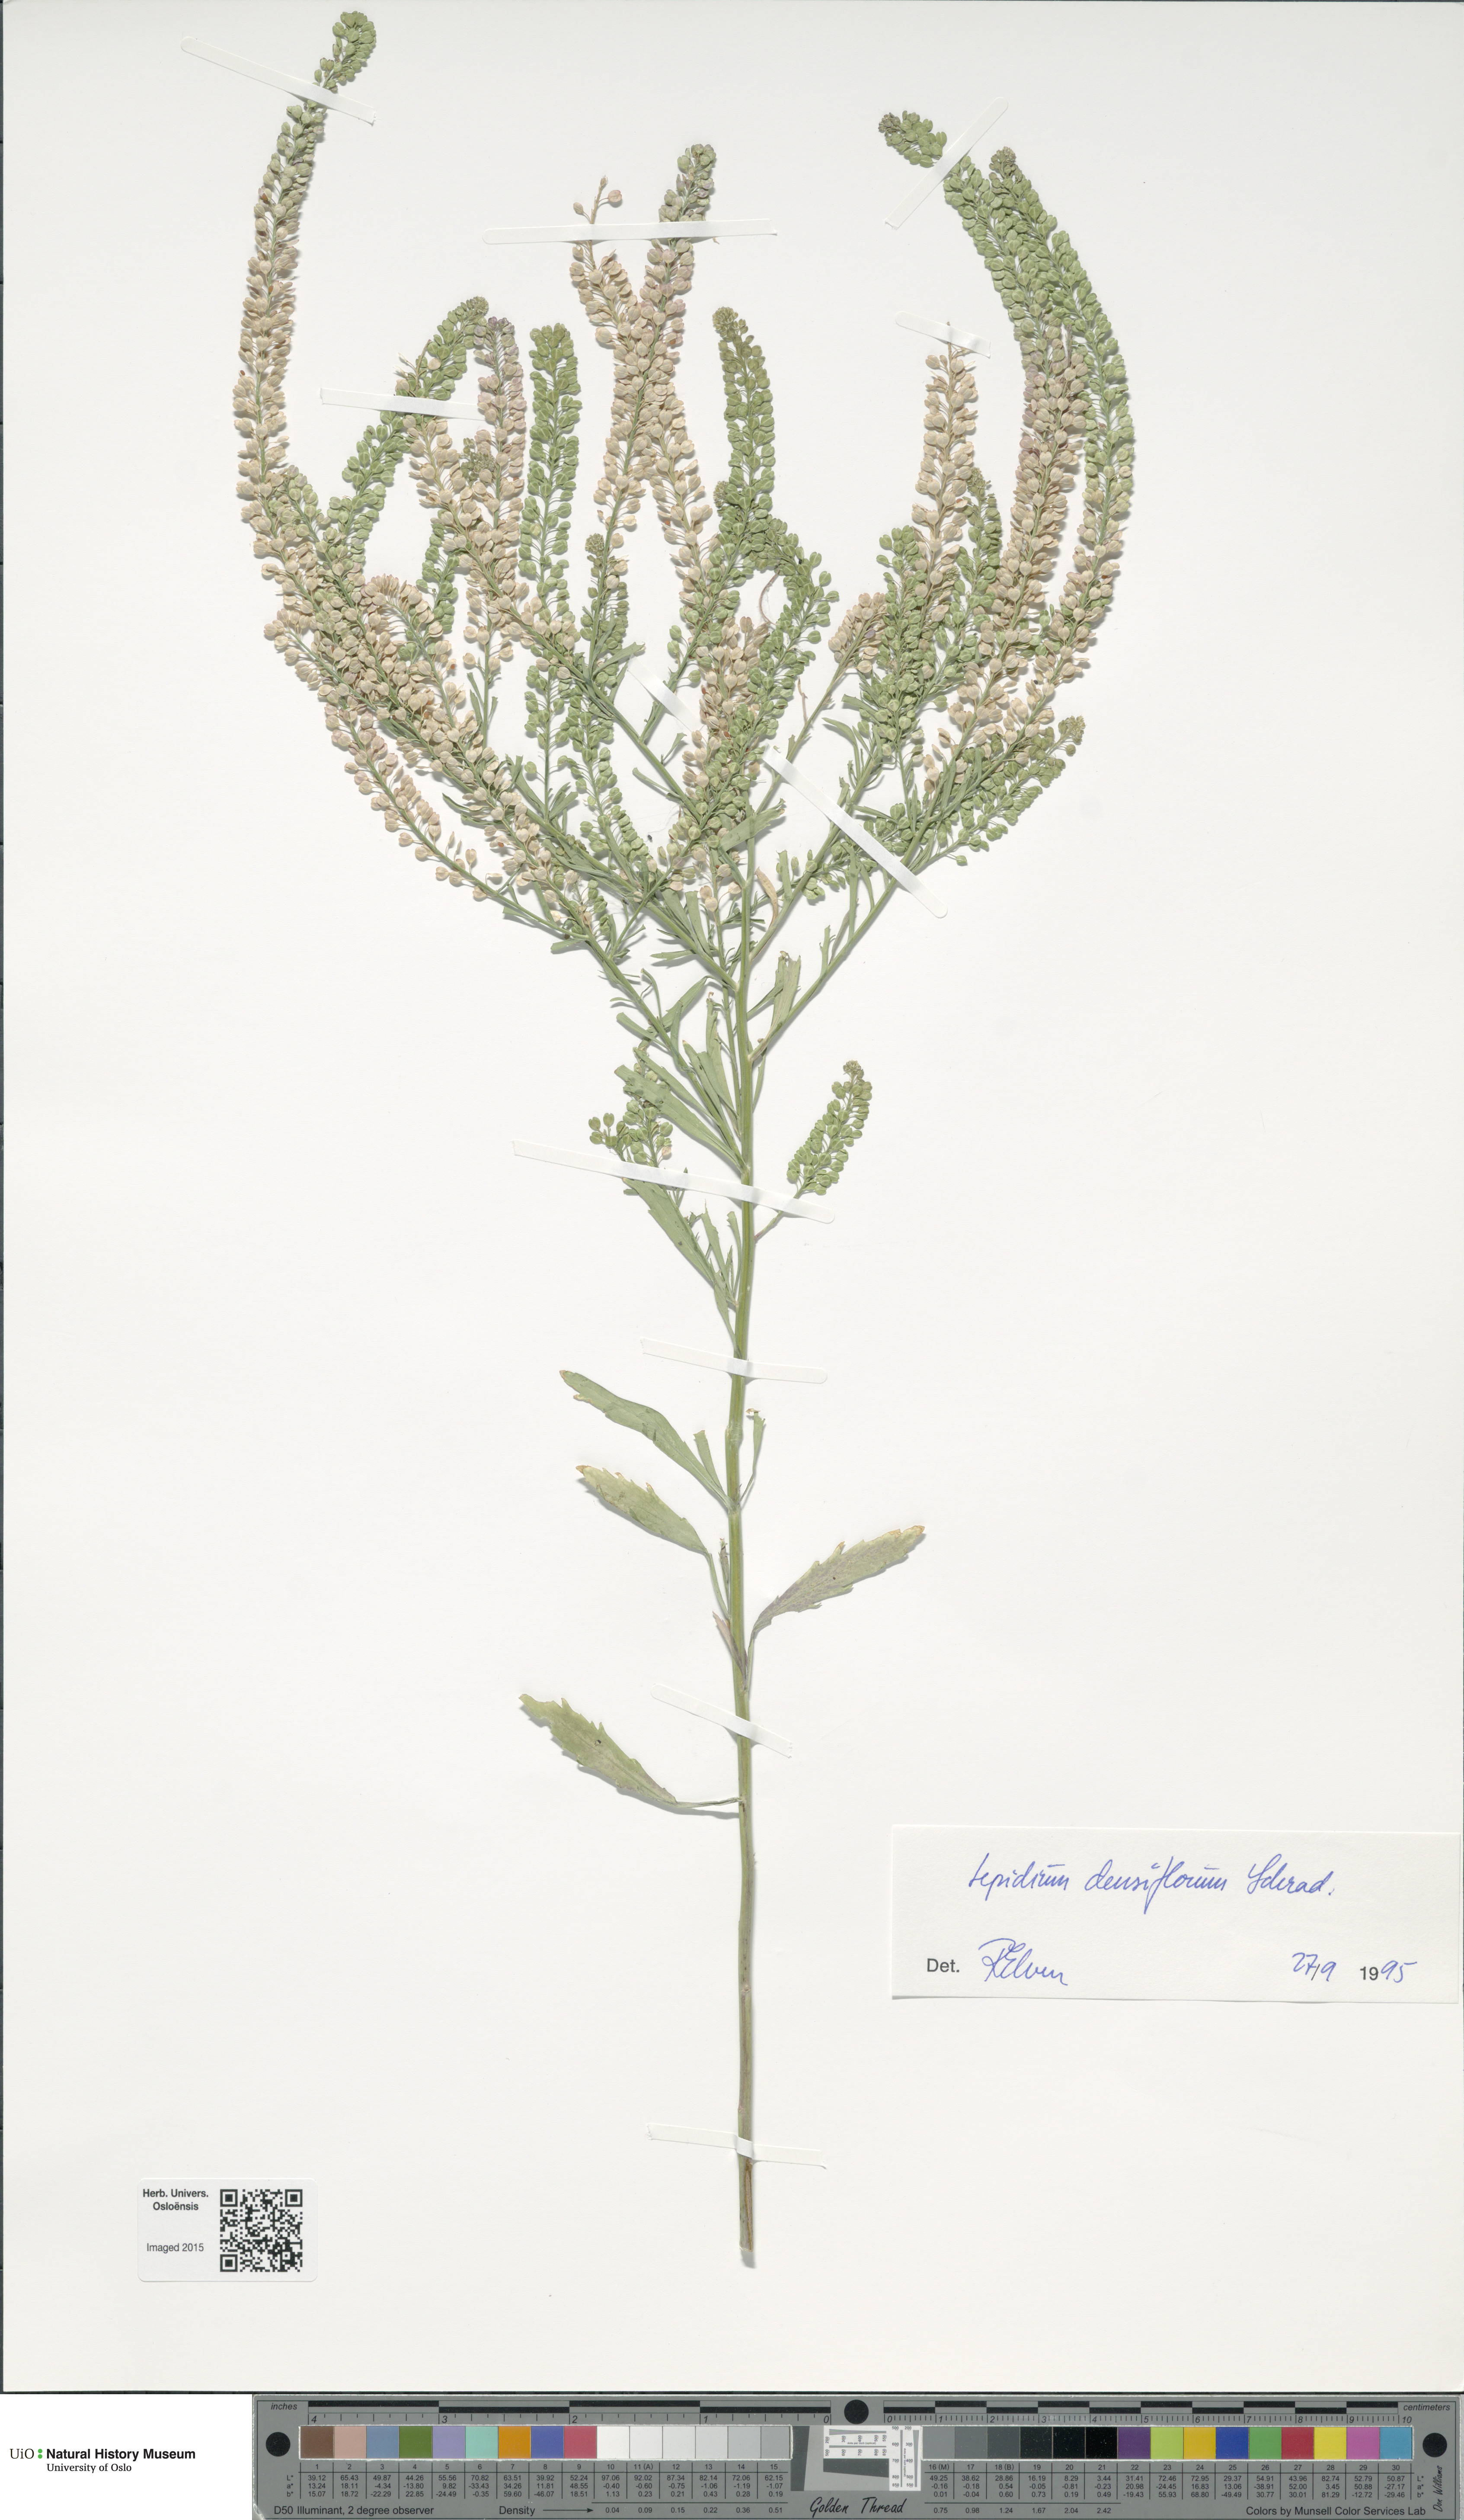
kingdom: Plantae
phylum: Tracheophyta
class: Magnoliopsida
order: Brassicales
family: Brassicaceae
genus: Lepidium
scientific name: Lepidium densiflorum
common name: Miner's pepperwort
